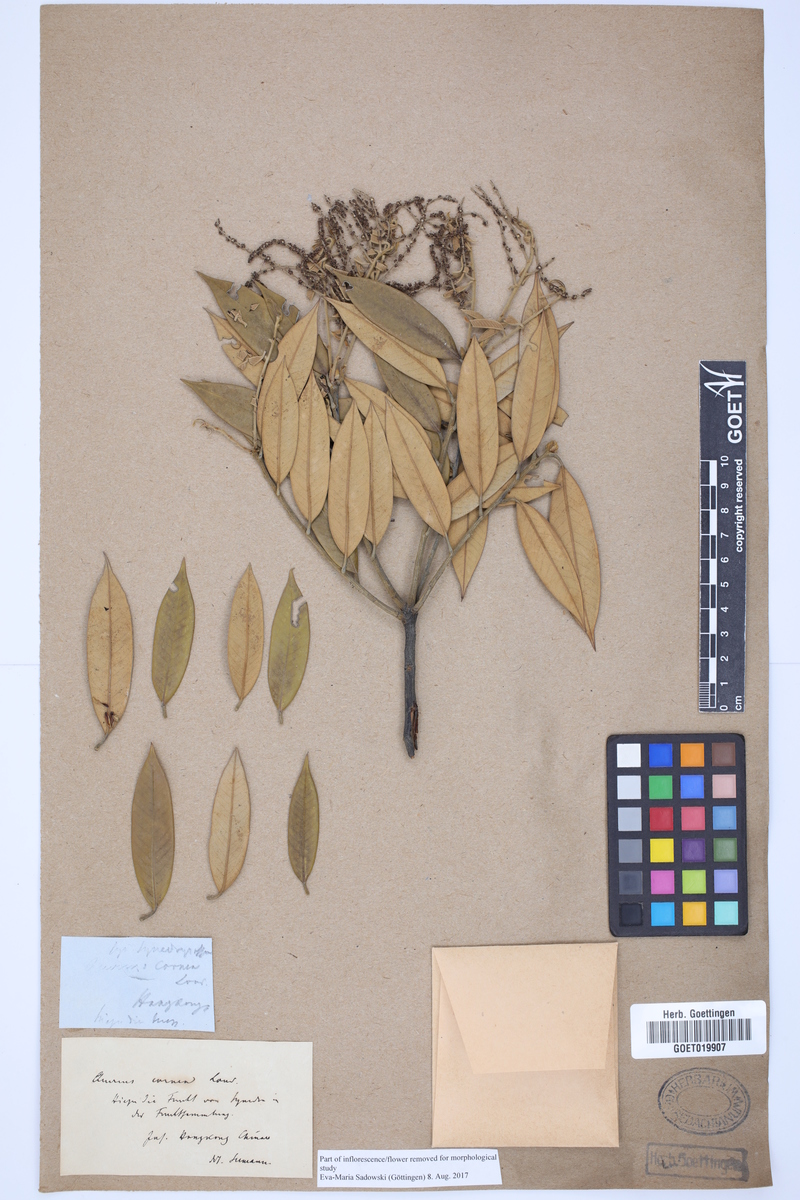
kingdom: Plantae
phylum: Tracheophyta
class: Magnoliopsida
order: Fagales
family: Fagaceae
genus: Lithocarpus
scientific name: Lithocarpus corneus
